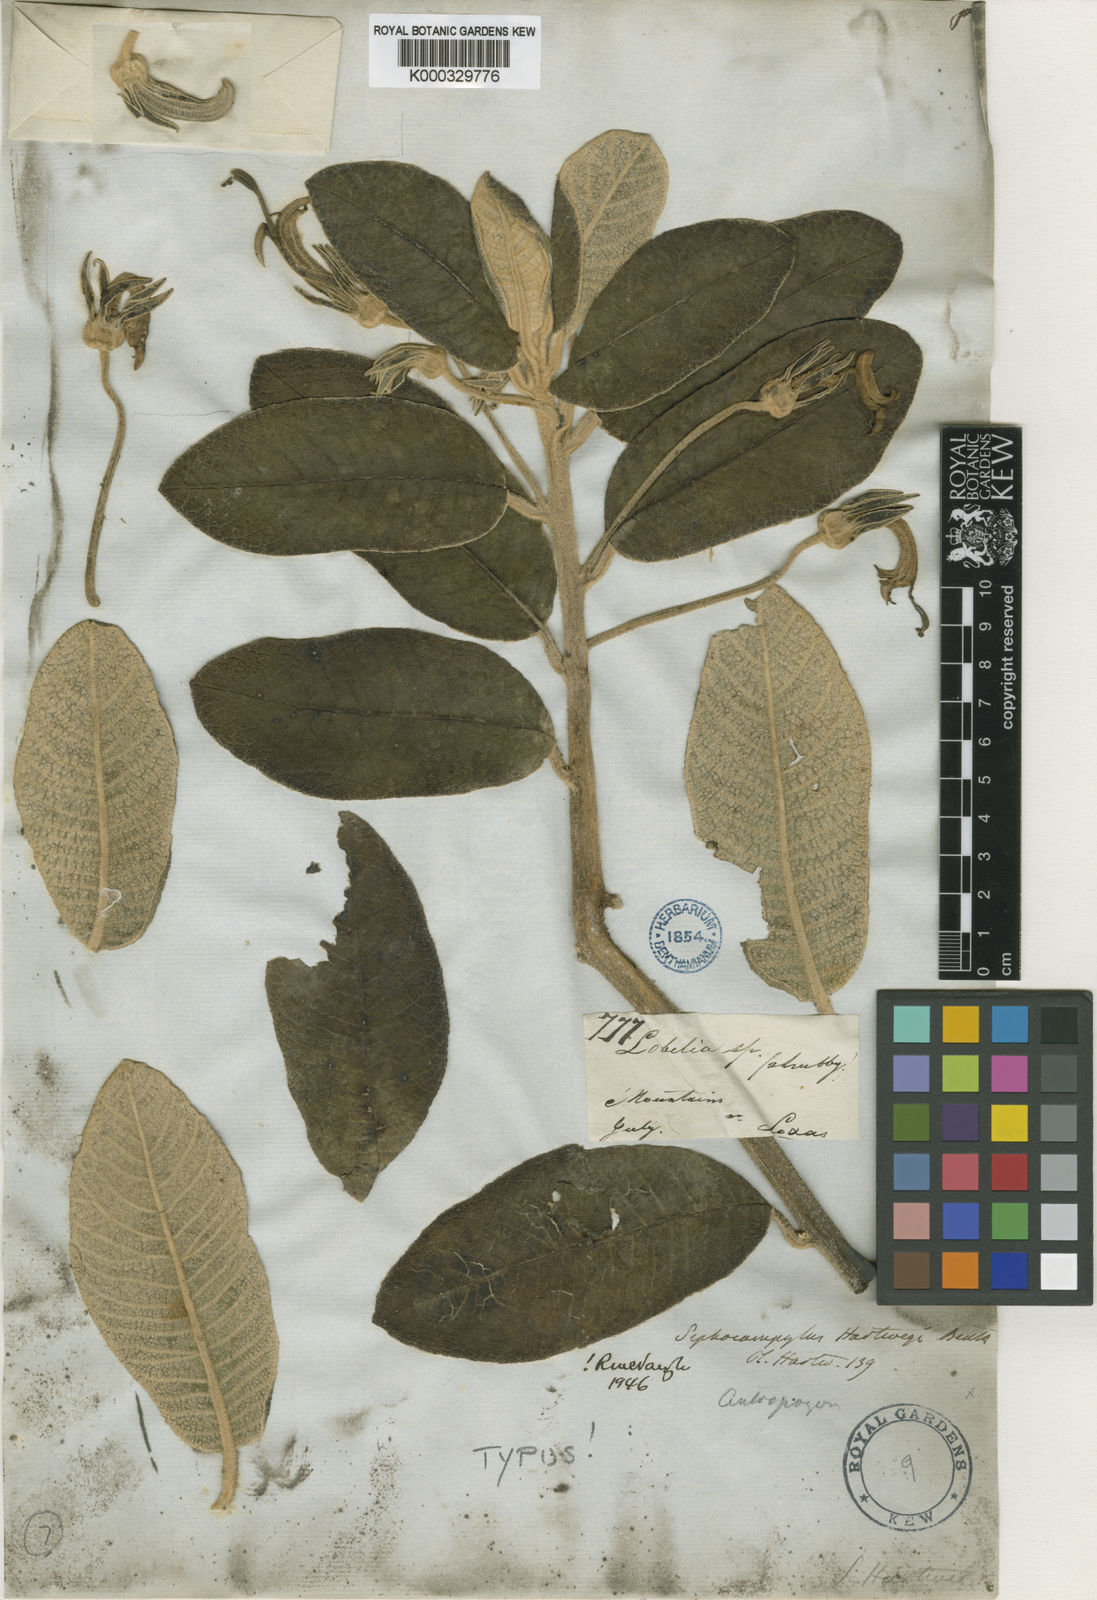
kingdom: Plantae
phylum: Tracheophyta
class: Magnoliopsida
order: Asterales
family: Campanulaceae
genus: Centropogon
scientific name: Centropogon hartwegii
